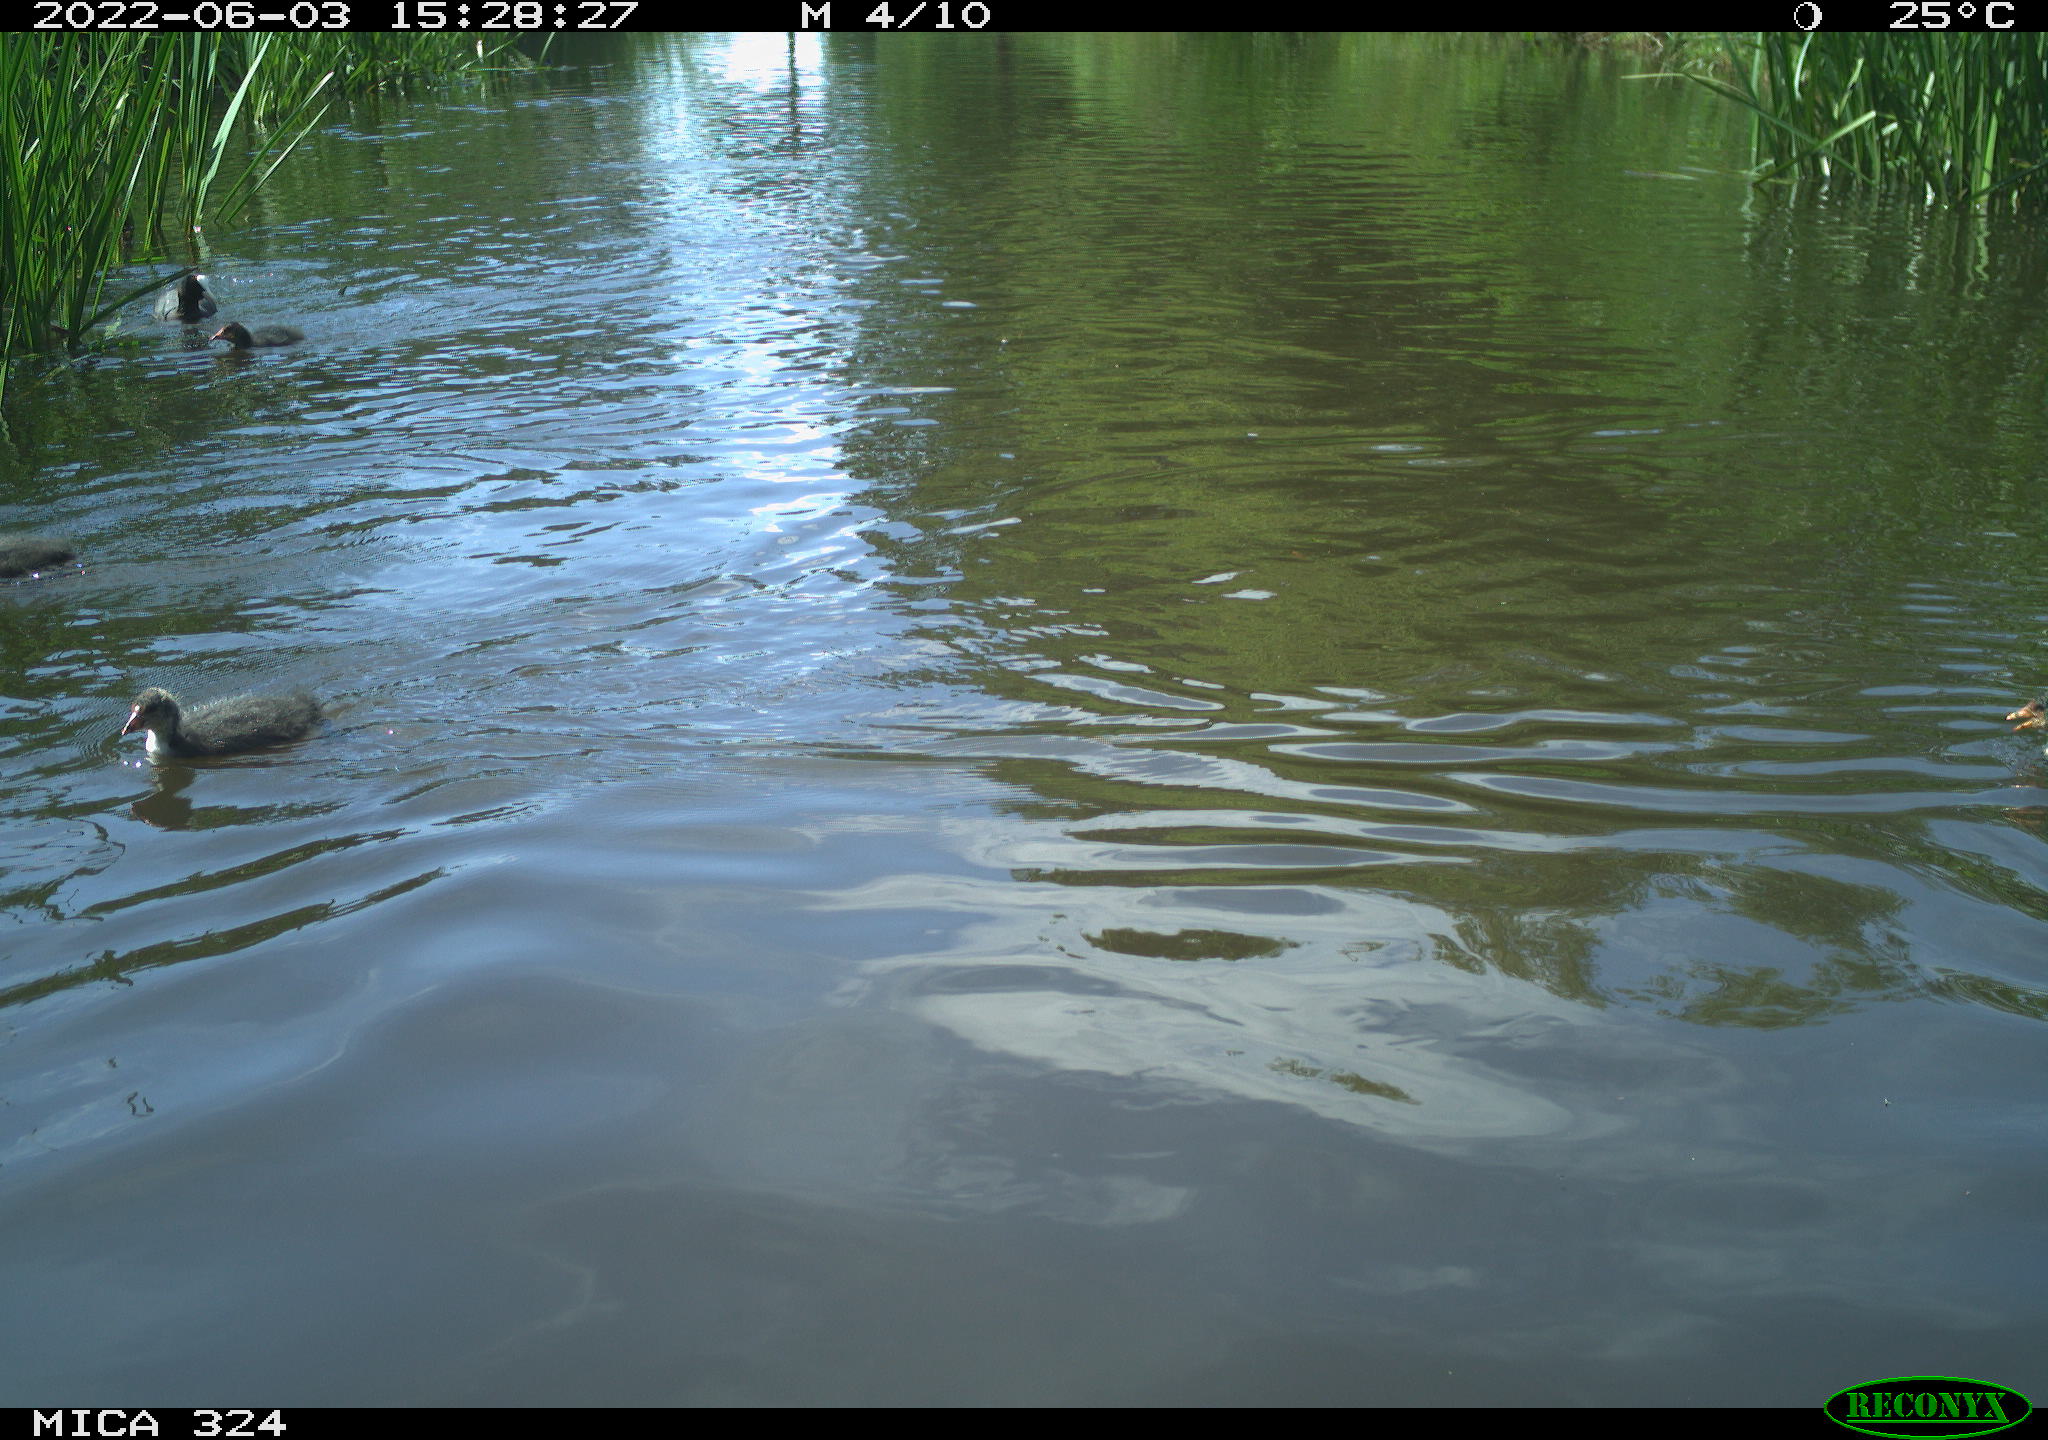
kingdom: Animalia
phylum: Chordata
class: Aves
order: Gruiformes
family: Rallidae
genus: Fulica
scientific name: Fulica atra
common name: Eurasian coot
